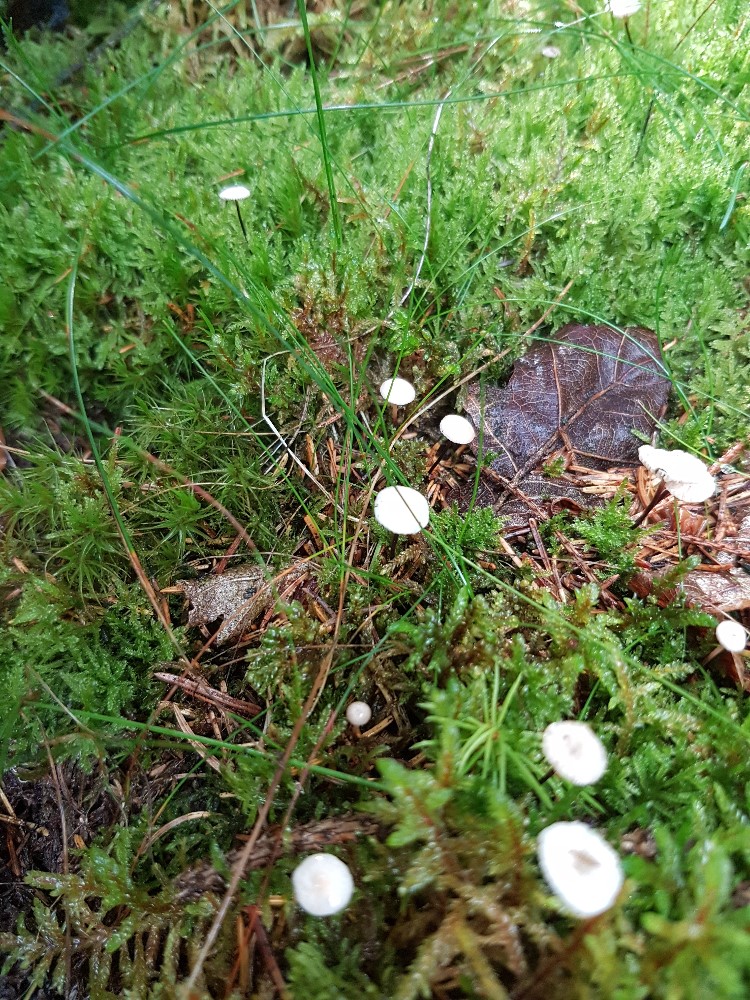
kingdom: Fungi
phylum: Basidiomycota
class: Agaricomycetes
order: Agaricales
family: Omphalotaceae
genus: Paragymnopus
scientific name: Paragymnopus perforans
